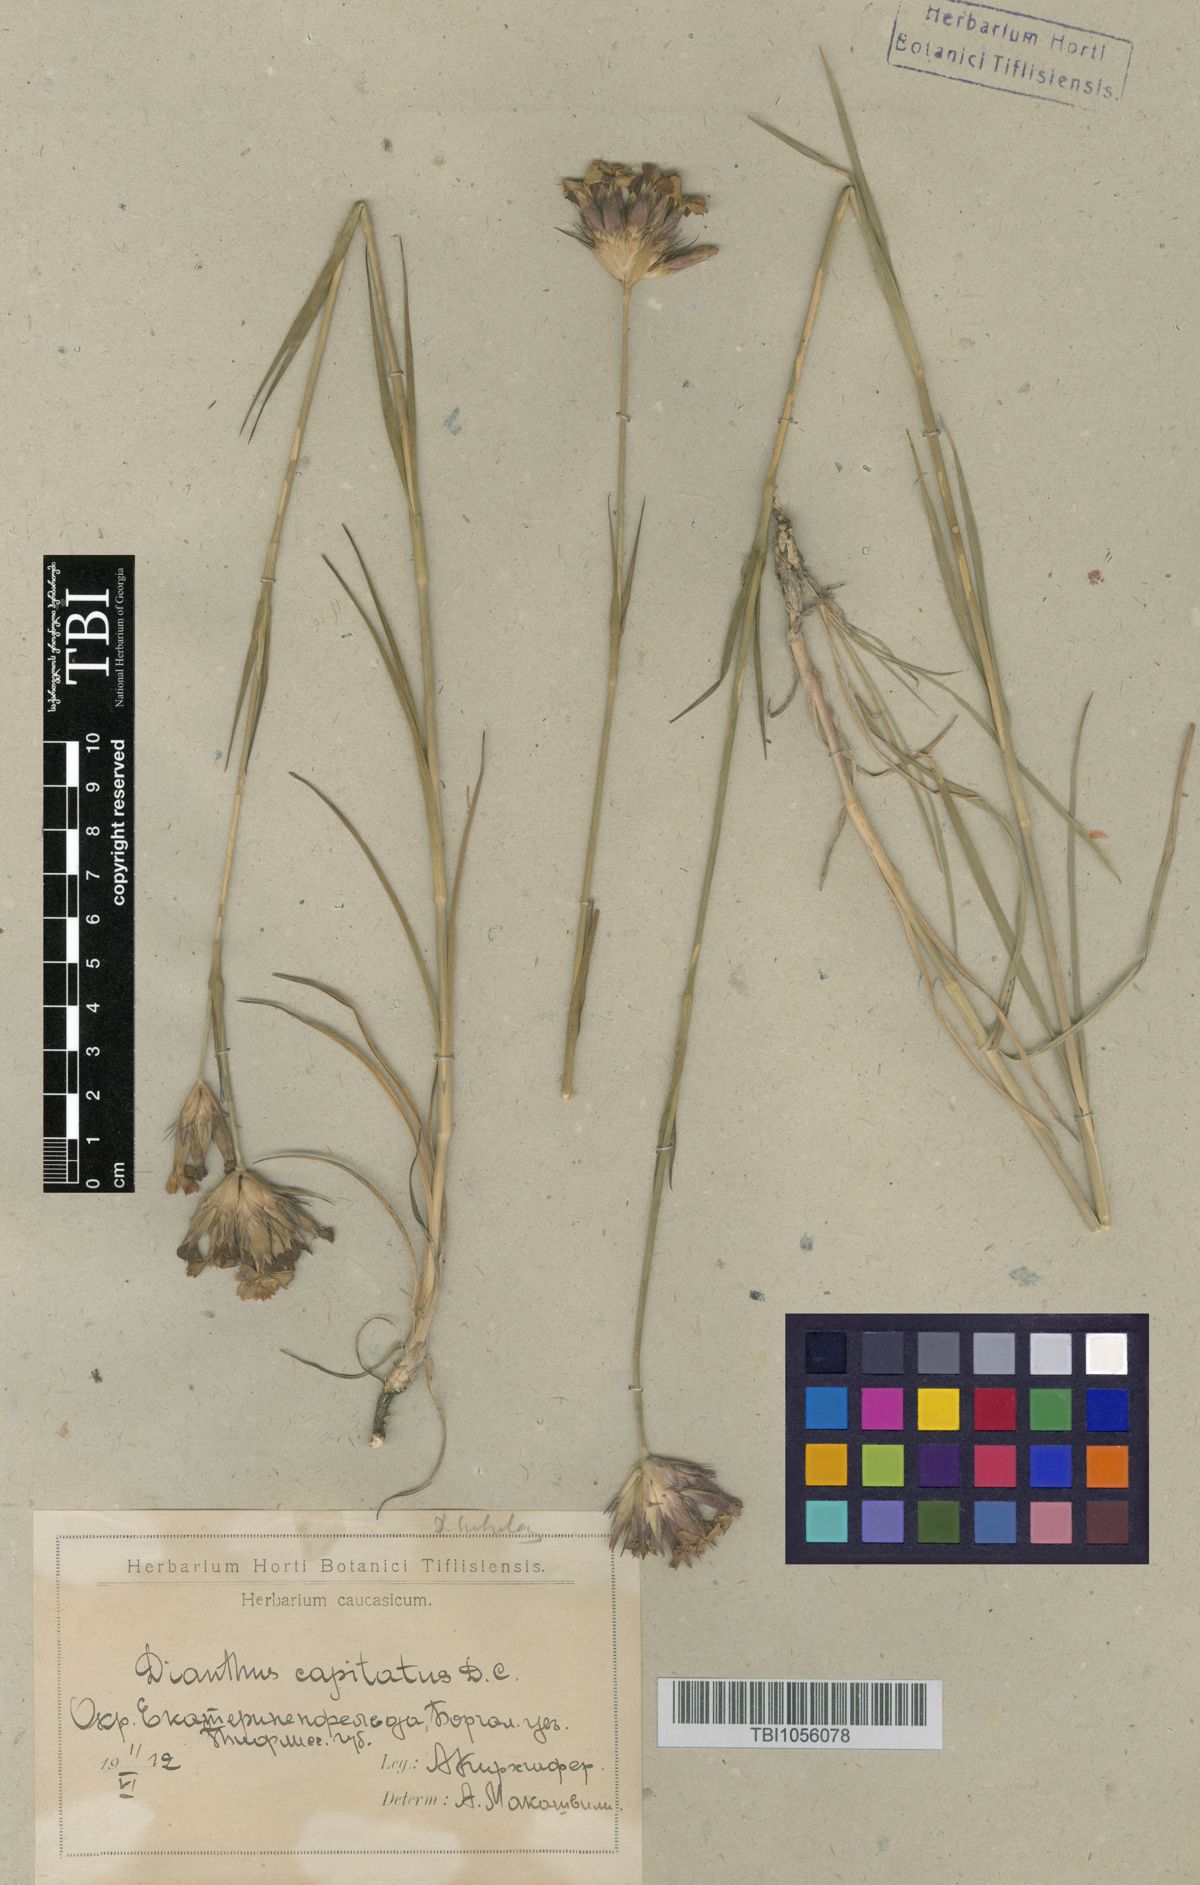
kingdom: Plantae
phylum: Tracheophyta
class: Magnoliopsida
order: Caryophyllales
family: Caryophyllaceae
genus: Dianthus
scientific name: Dianthus subulosus
